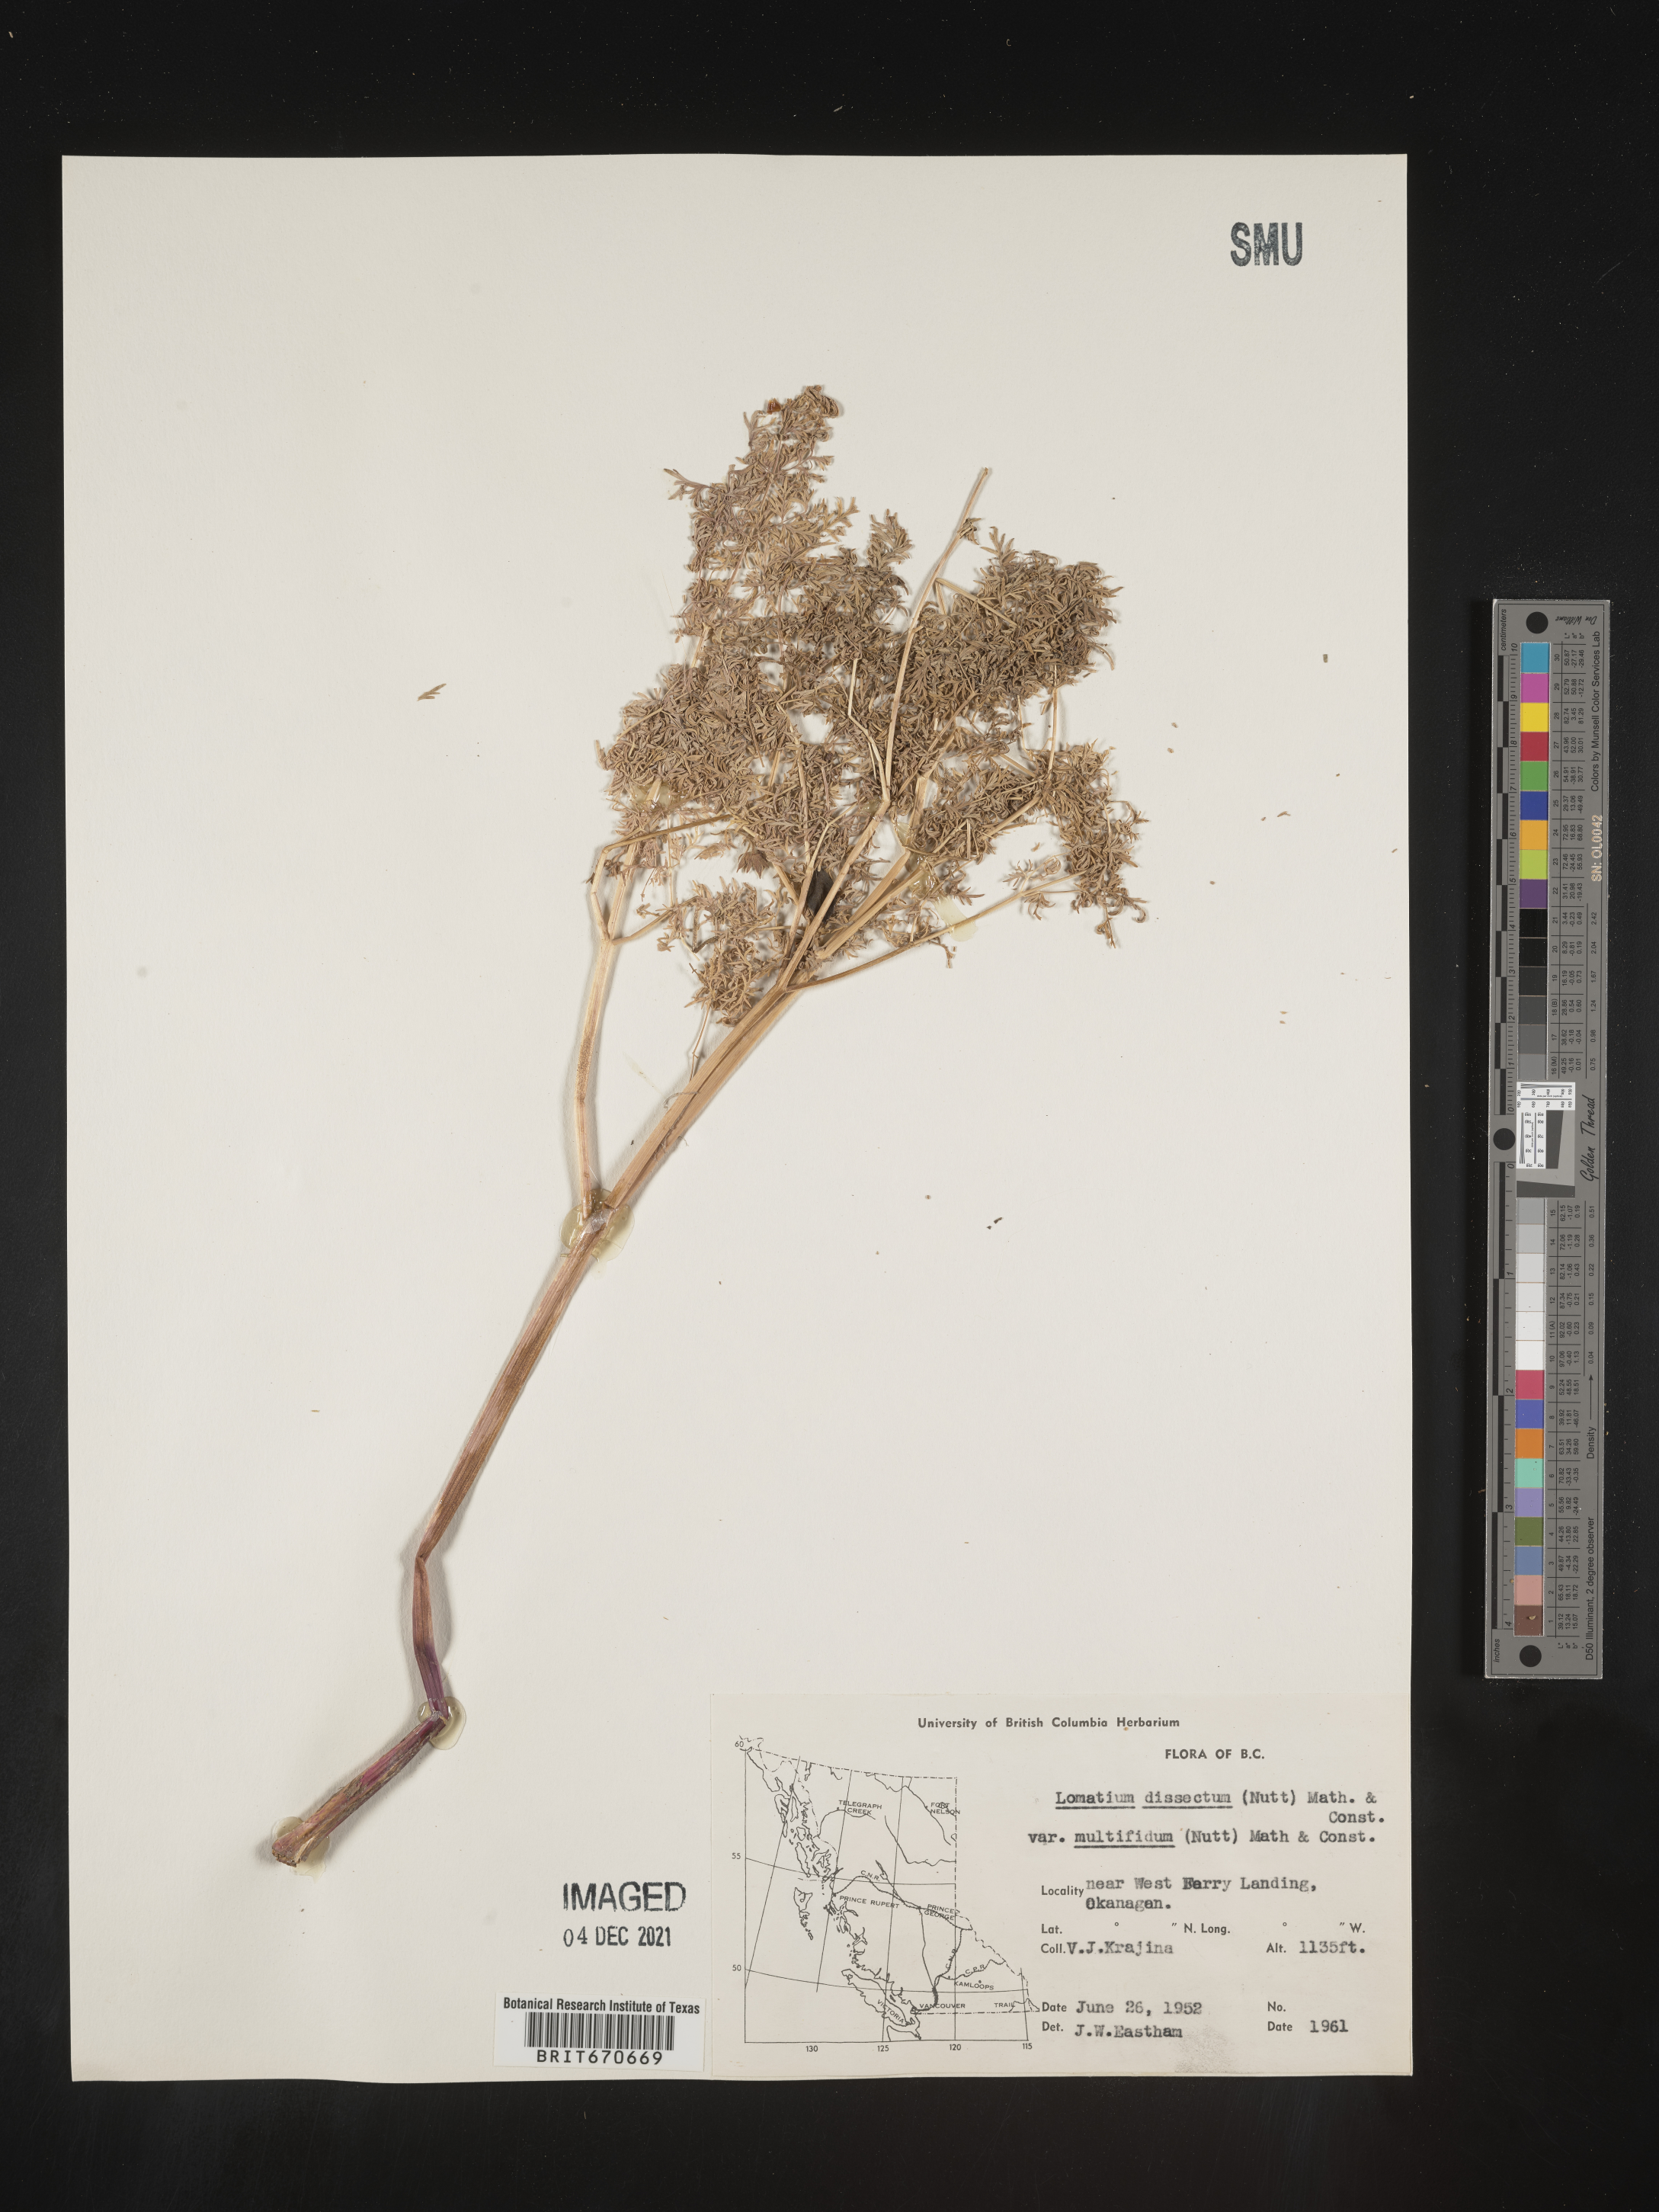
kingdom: Plantae
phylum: Tracheophyta
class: Magnoliopsida
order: Apiales
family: Apiaceae
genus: Lomatium
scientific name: Lomatium dissectum
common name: Lomatium
